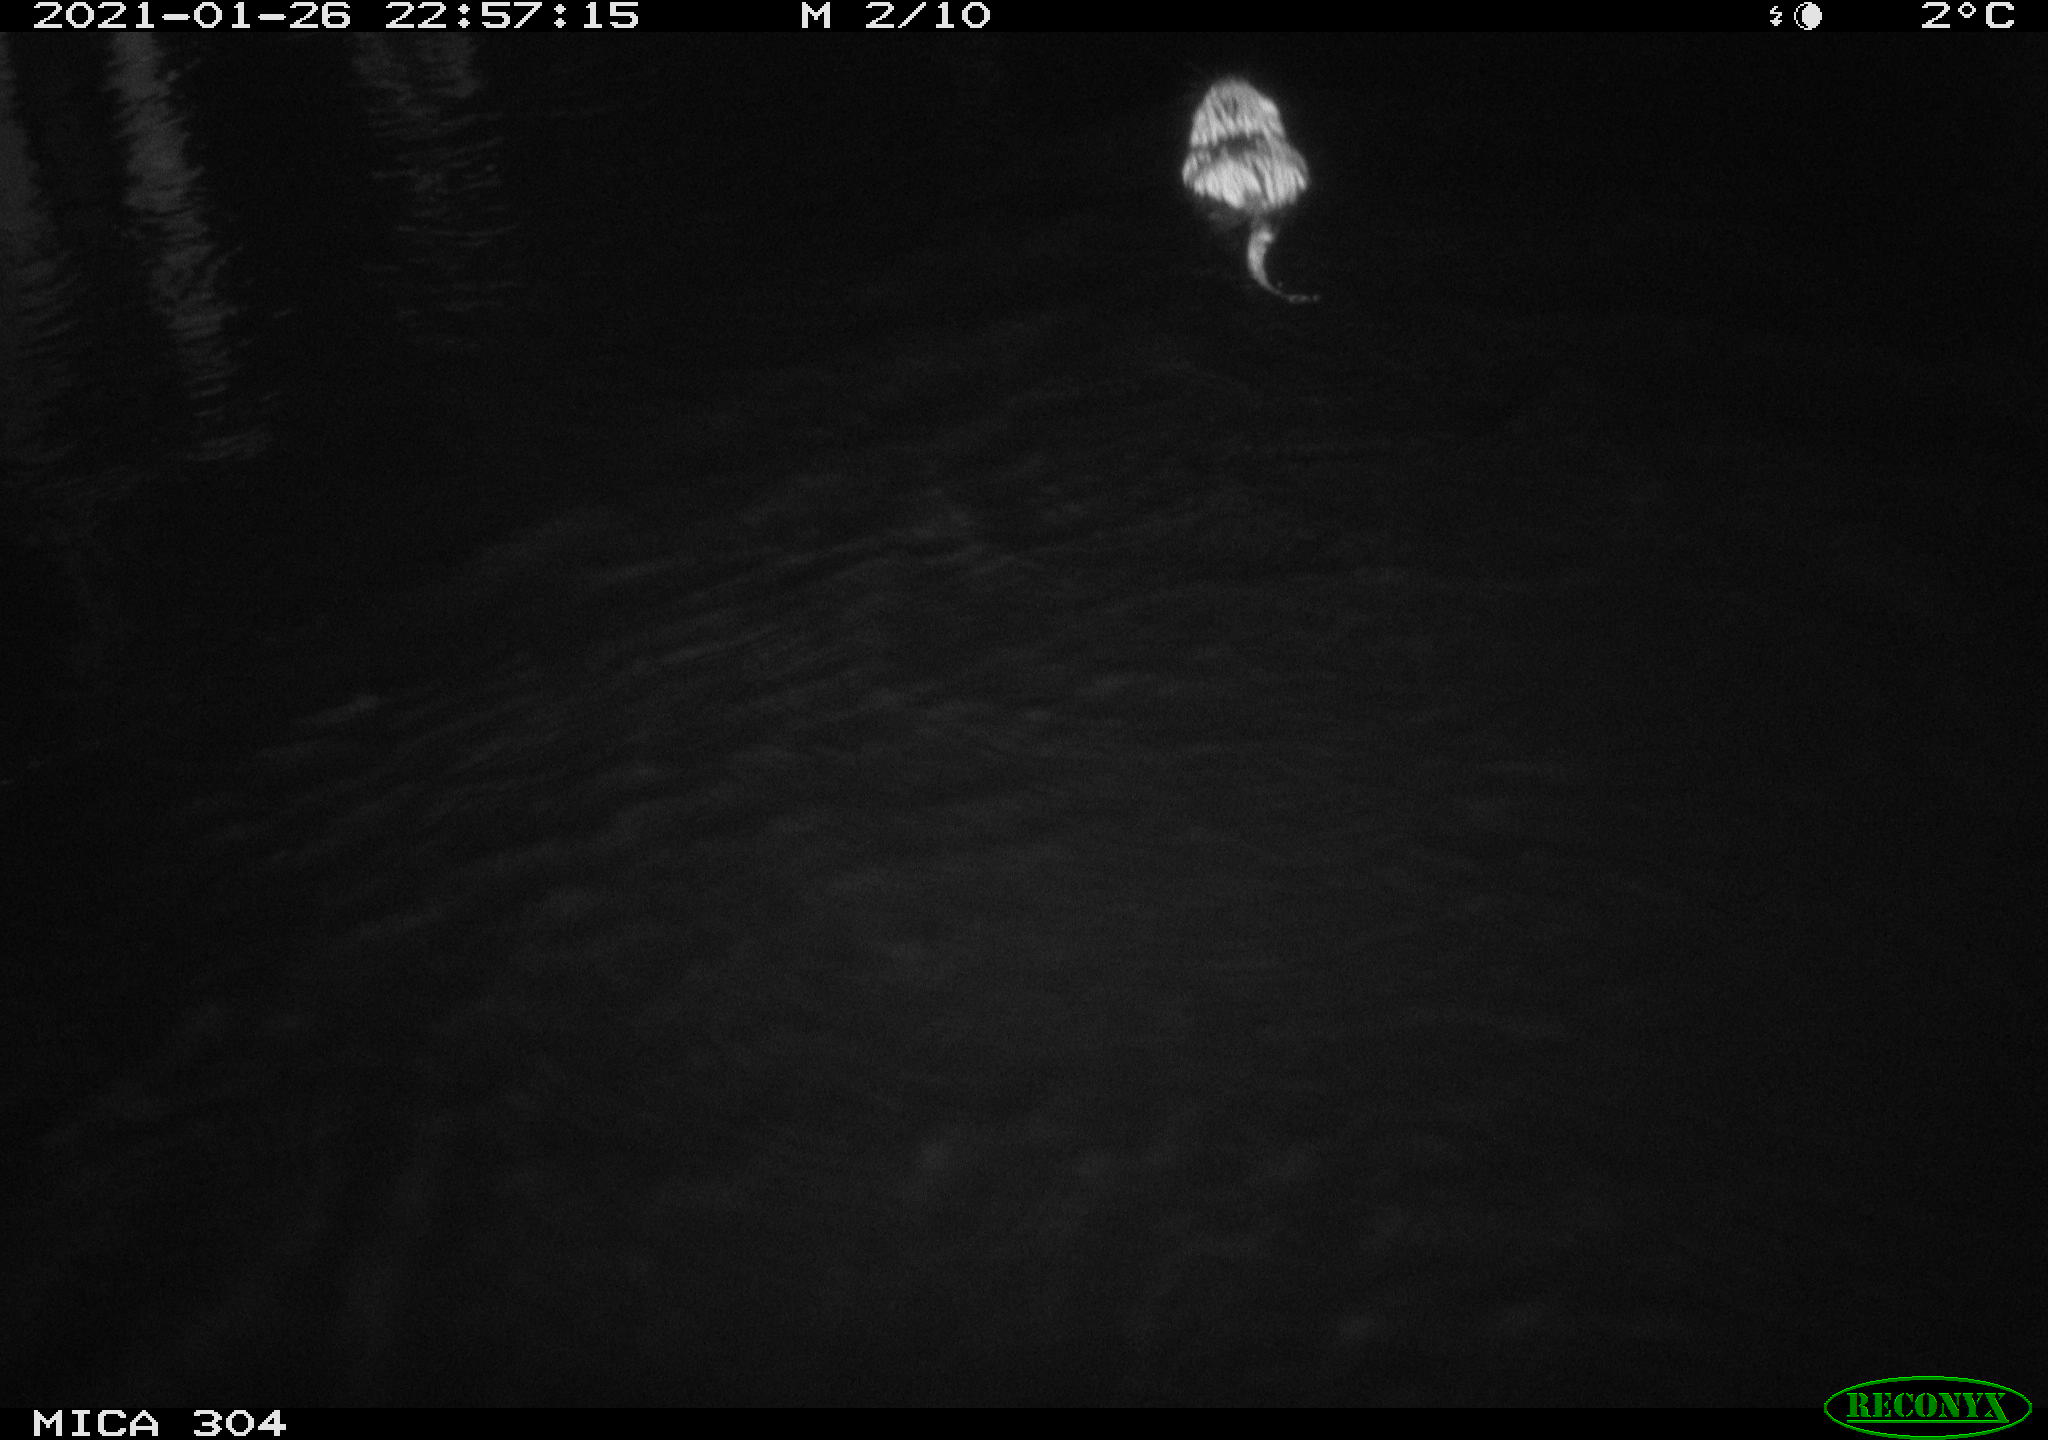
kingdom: Animalia
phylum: Chordata
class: Mammalia
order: Rodentia
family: Cricetidae
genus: Ondatra
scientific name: Ondatra zibethicus
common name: Muskrat
